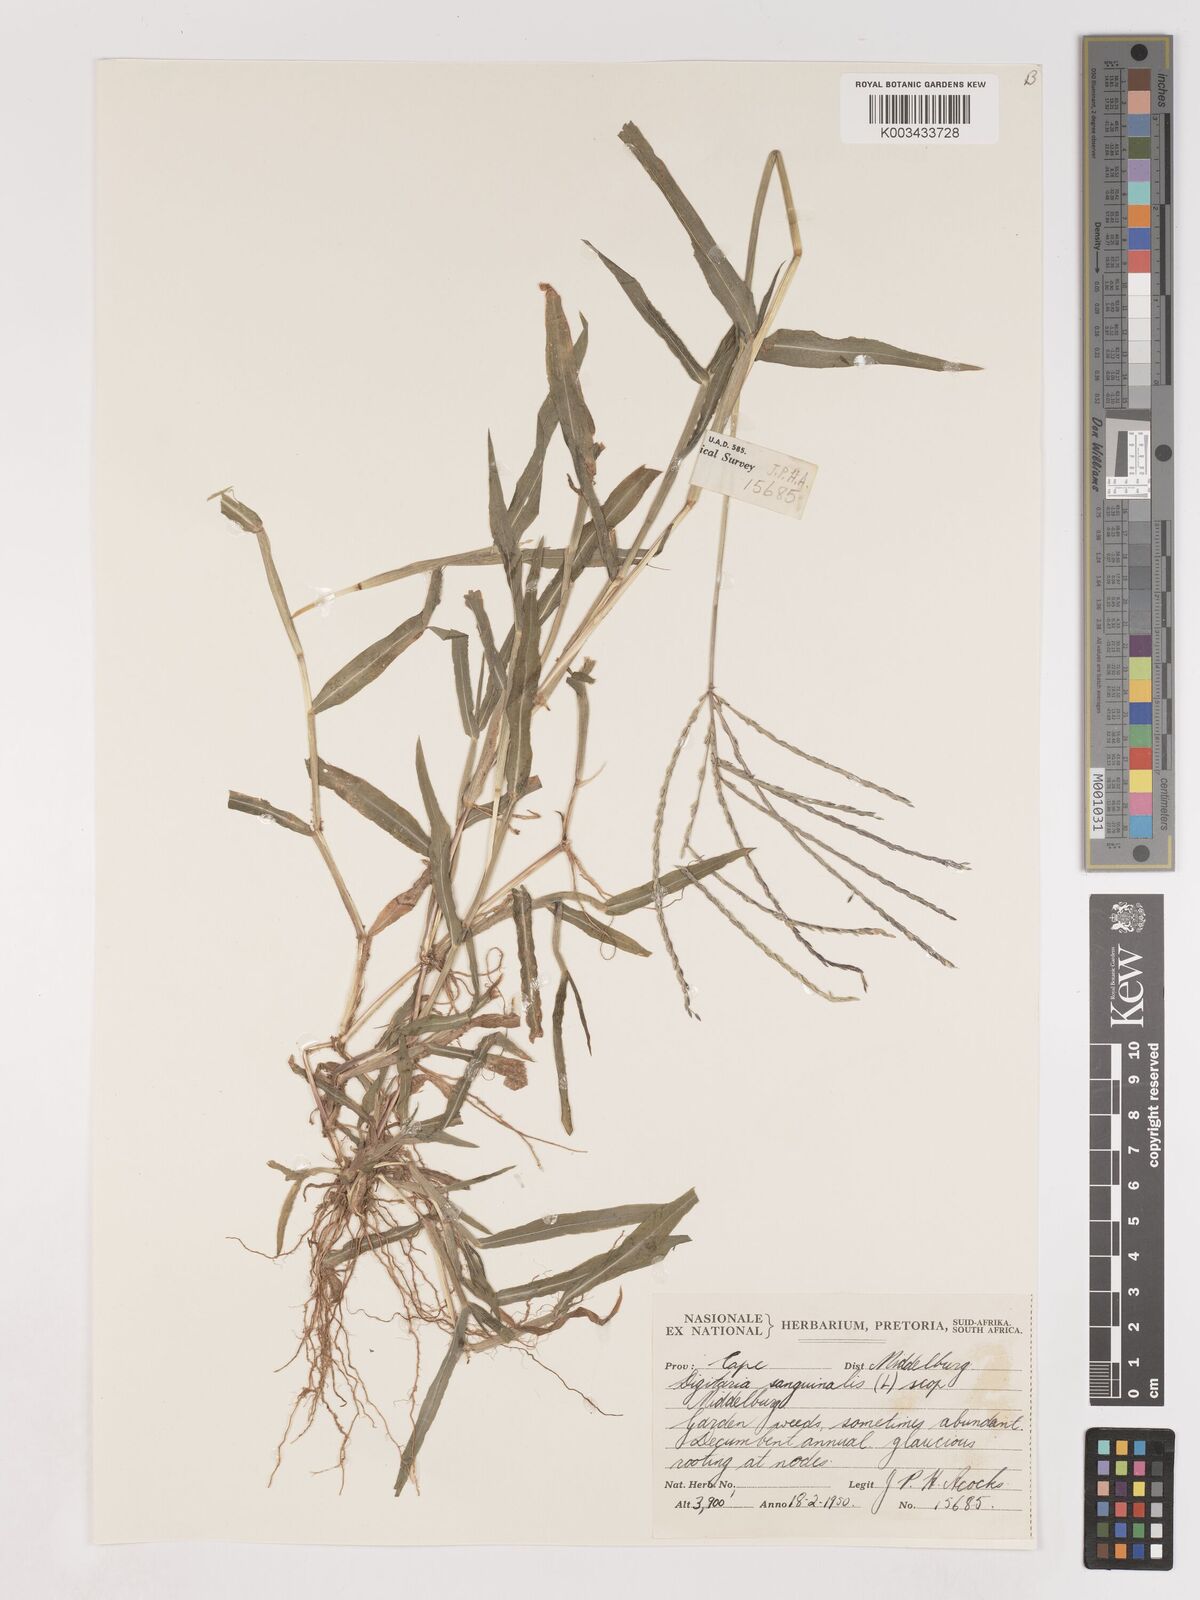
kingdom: Plantae
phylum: Tracheophyta
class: Liliopsida
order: Poales
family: Poaceae
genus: Digitaria
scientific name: Digitaria sanguinalis
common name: Hairy crabgrass
